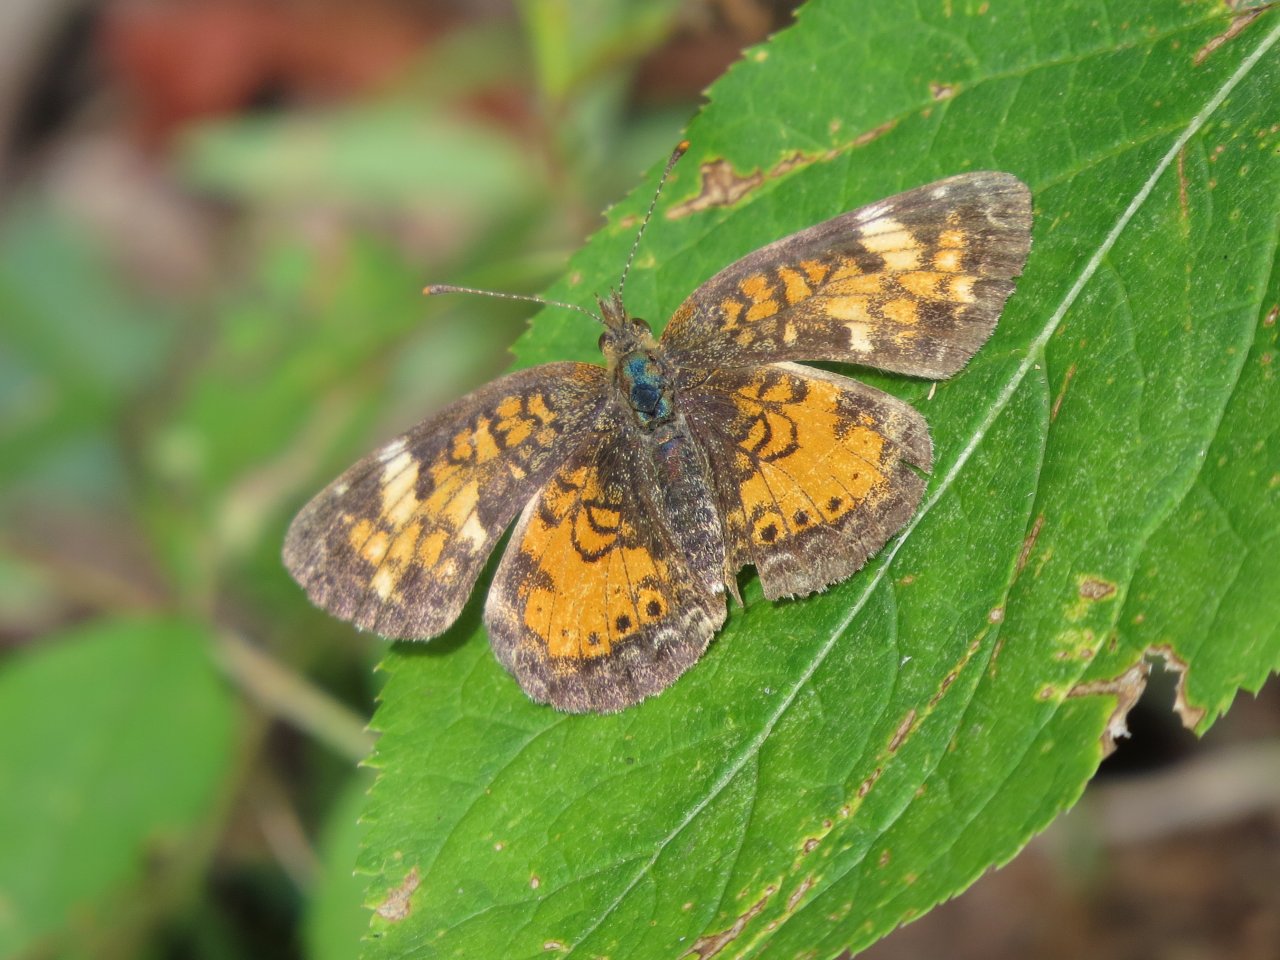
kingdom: Animalia
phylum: Arthropoda
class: Insecta
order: Lepidoptera
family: Nymphalidae
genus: Phyciodes
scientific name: Phyciodes tharos
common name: Northern Crescent
